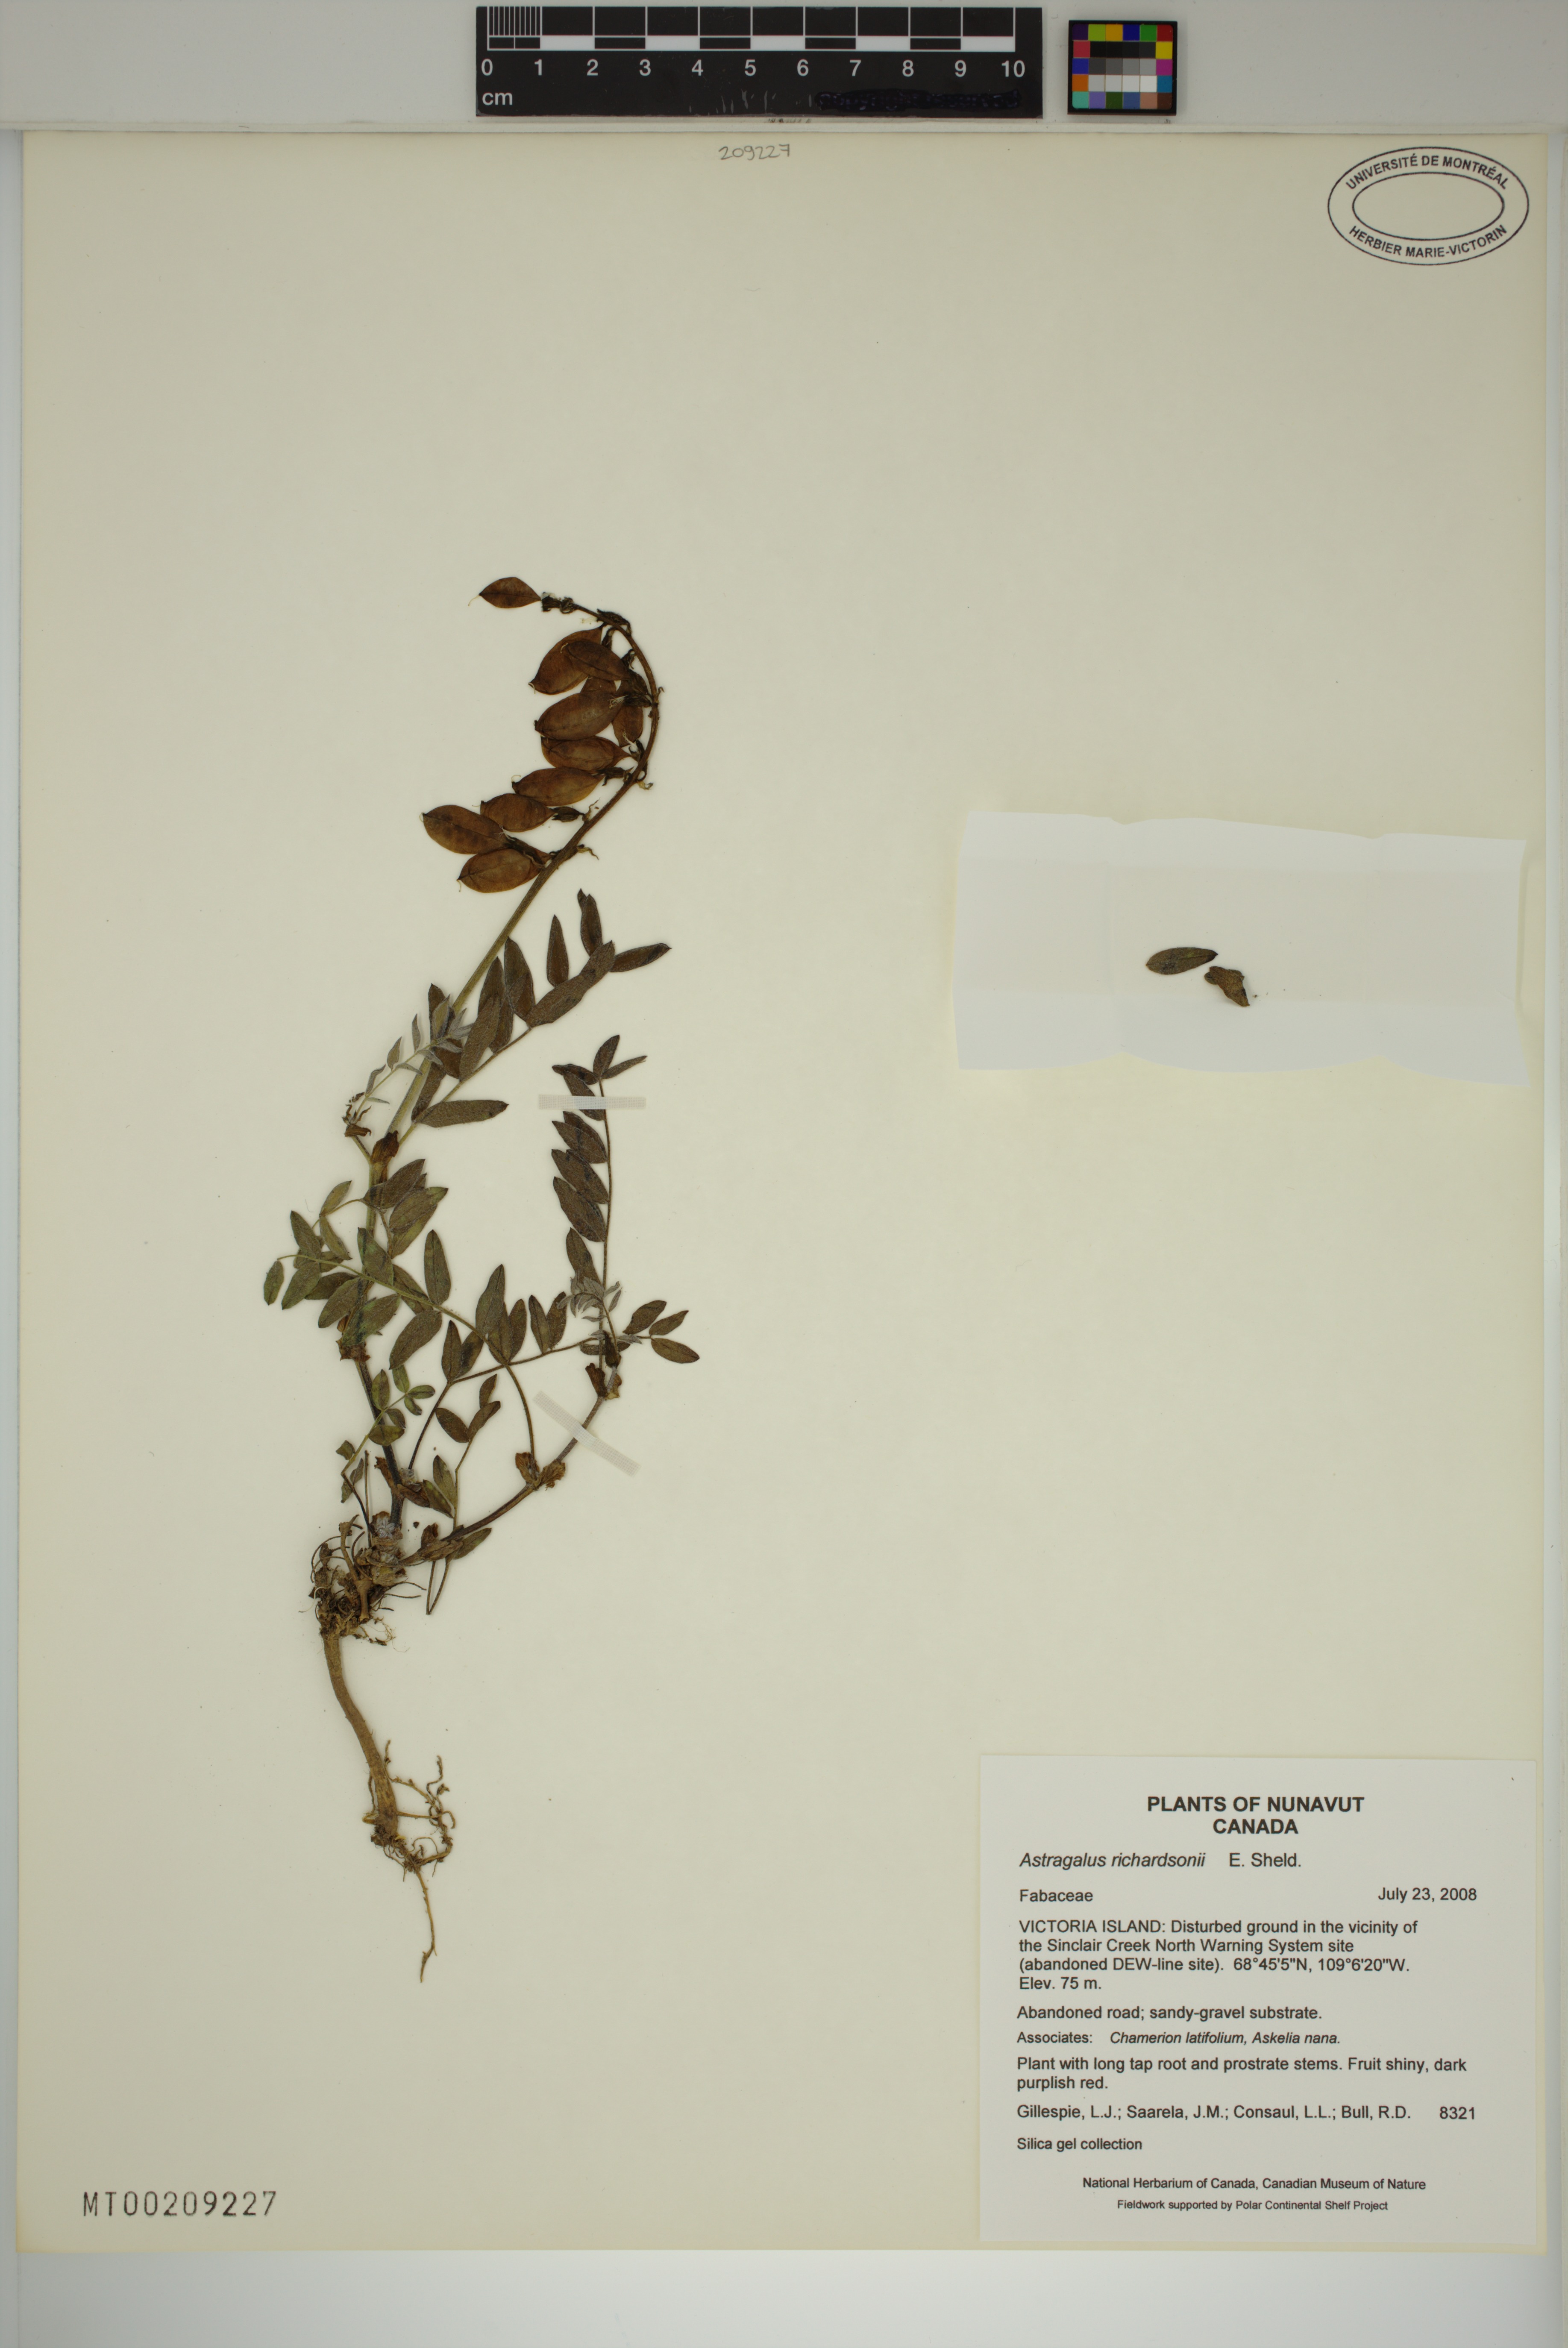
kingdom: Plantae
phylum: Tracheophyta
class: Magnoliopsida
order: Fabales
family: Fabaceae
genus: Astragalus
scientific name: Astragalus hallii
